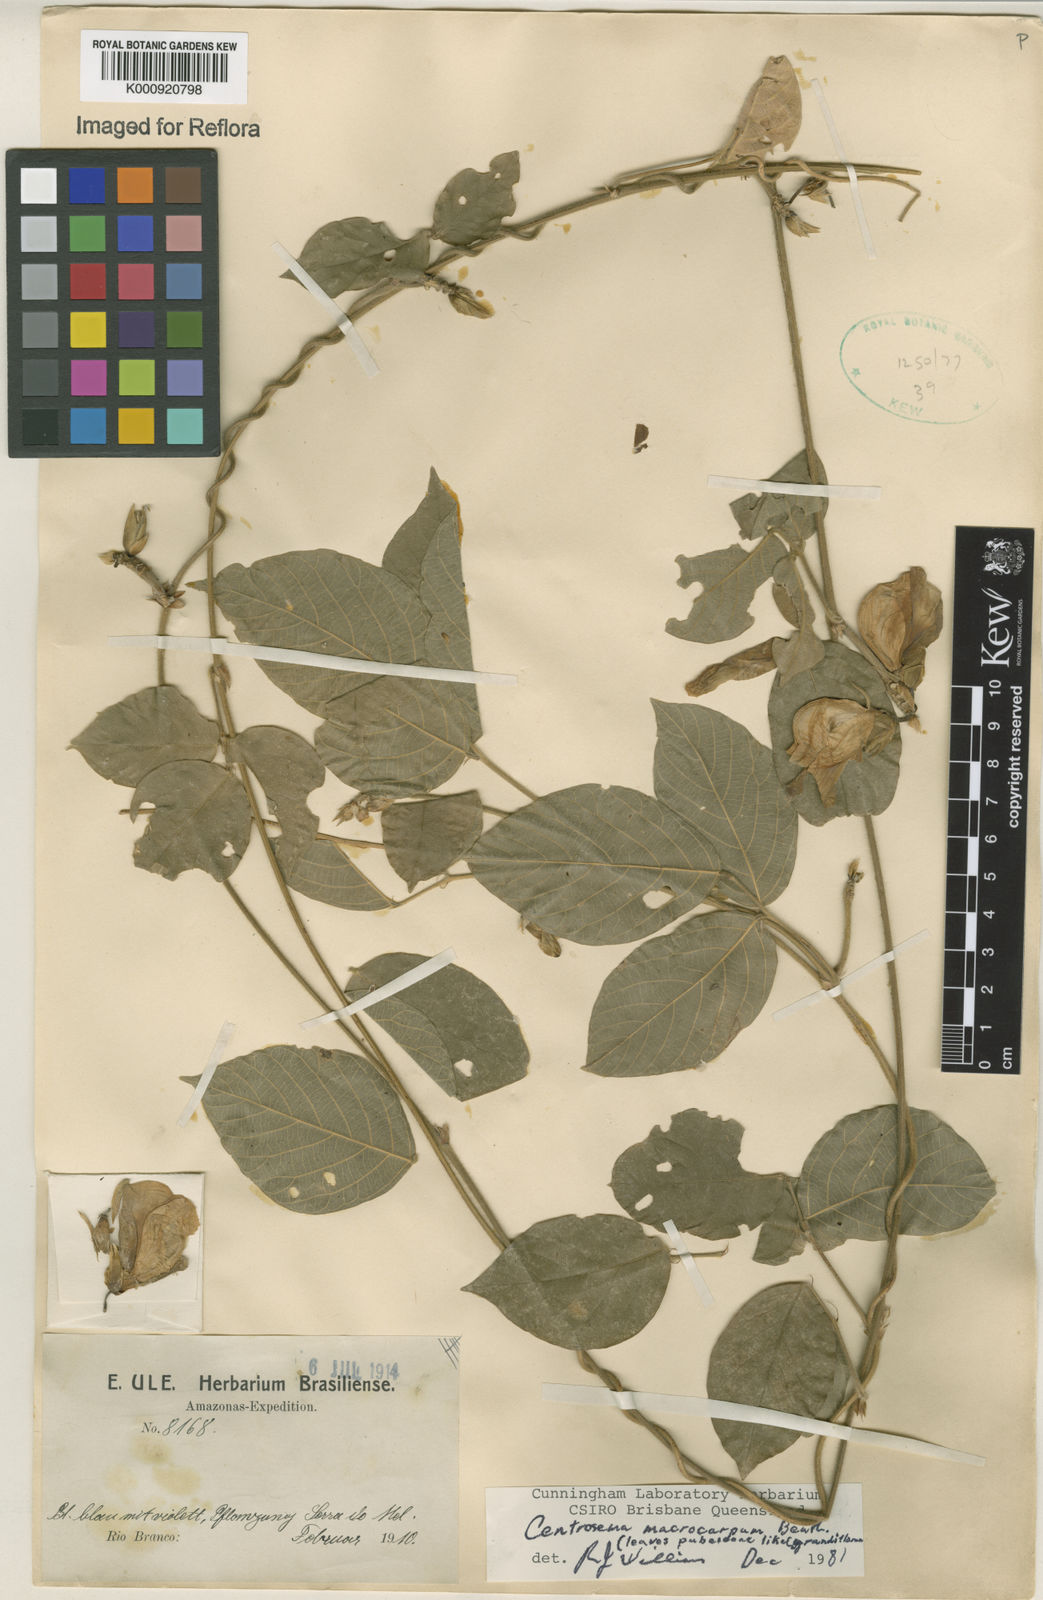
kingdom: Plantae
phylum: Tracheophyta
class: Magnoliopsida
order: Fabales
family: Fabaceae
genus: Centrosema
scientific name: Centrosema macrocarpum
